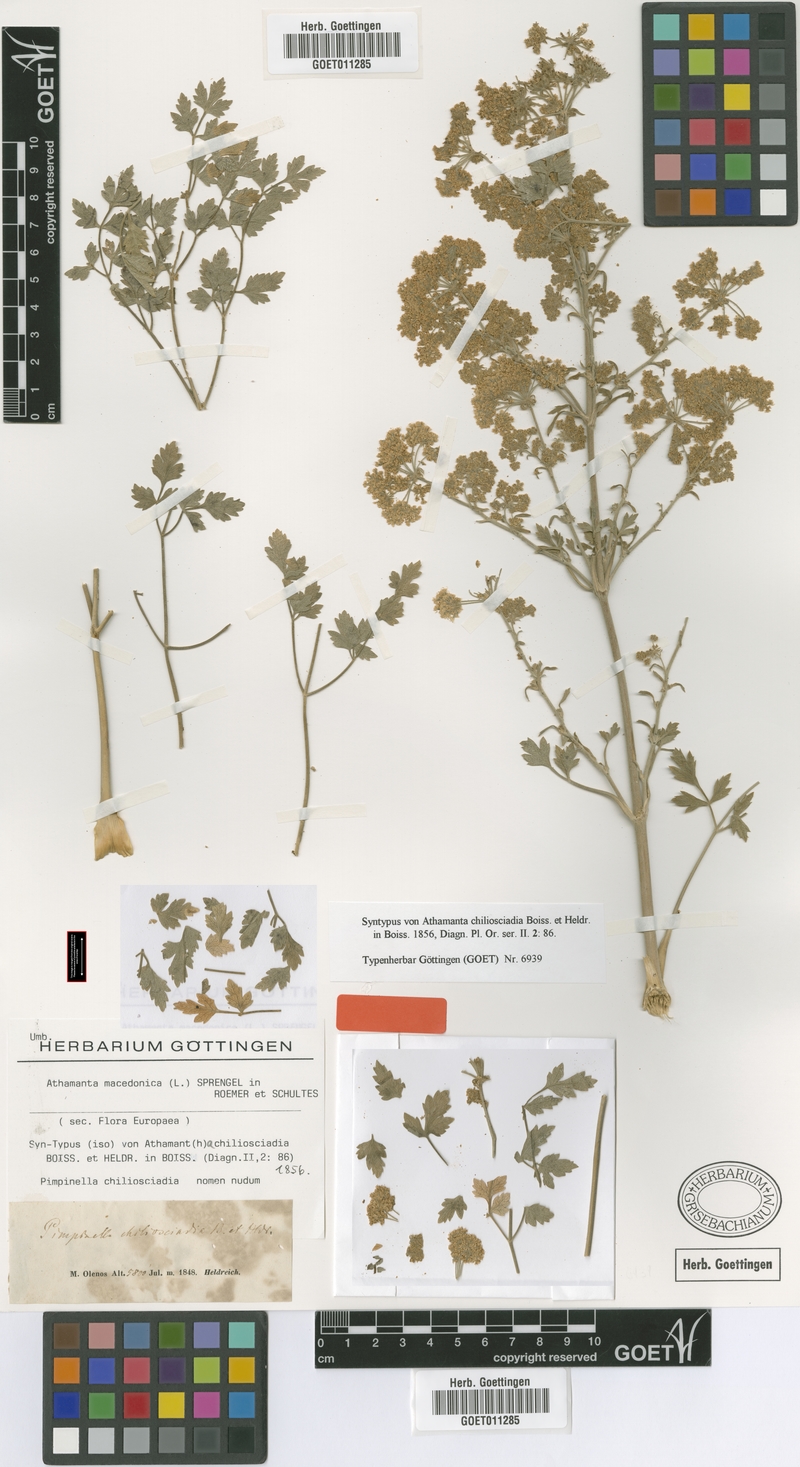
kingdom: Plantae
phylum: Tracheophyta
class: Magnoliopsida
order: Apiales
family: Apiaceae
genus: Bubon
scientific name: Bubon macedonicum
